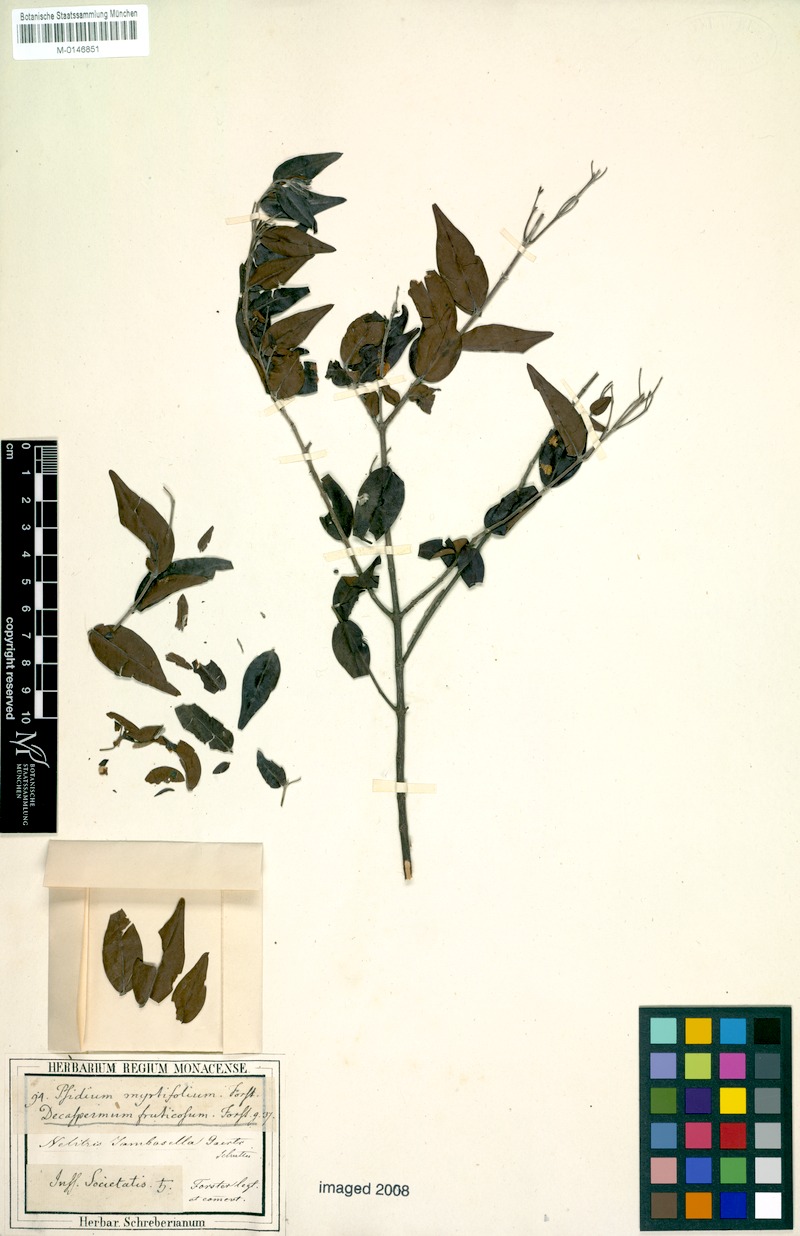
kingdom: Plantae
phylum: Tracheophyta
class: Magnoliopsida
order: Myrtales
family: Myrtaceae
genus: Decaspermum
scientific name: Decaspermum fruticosum
